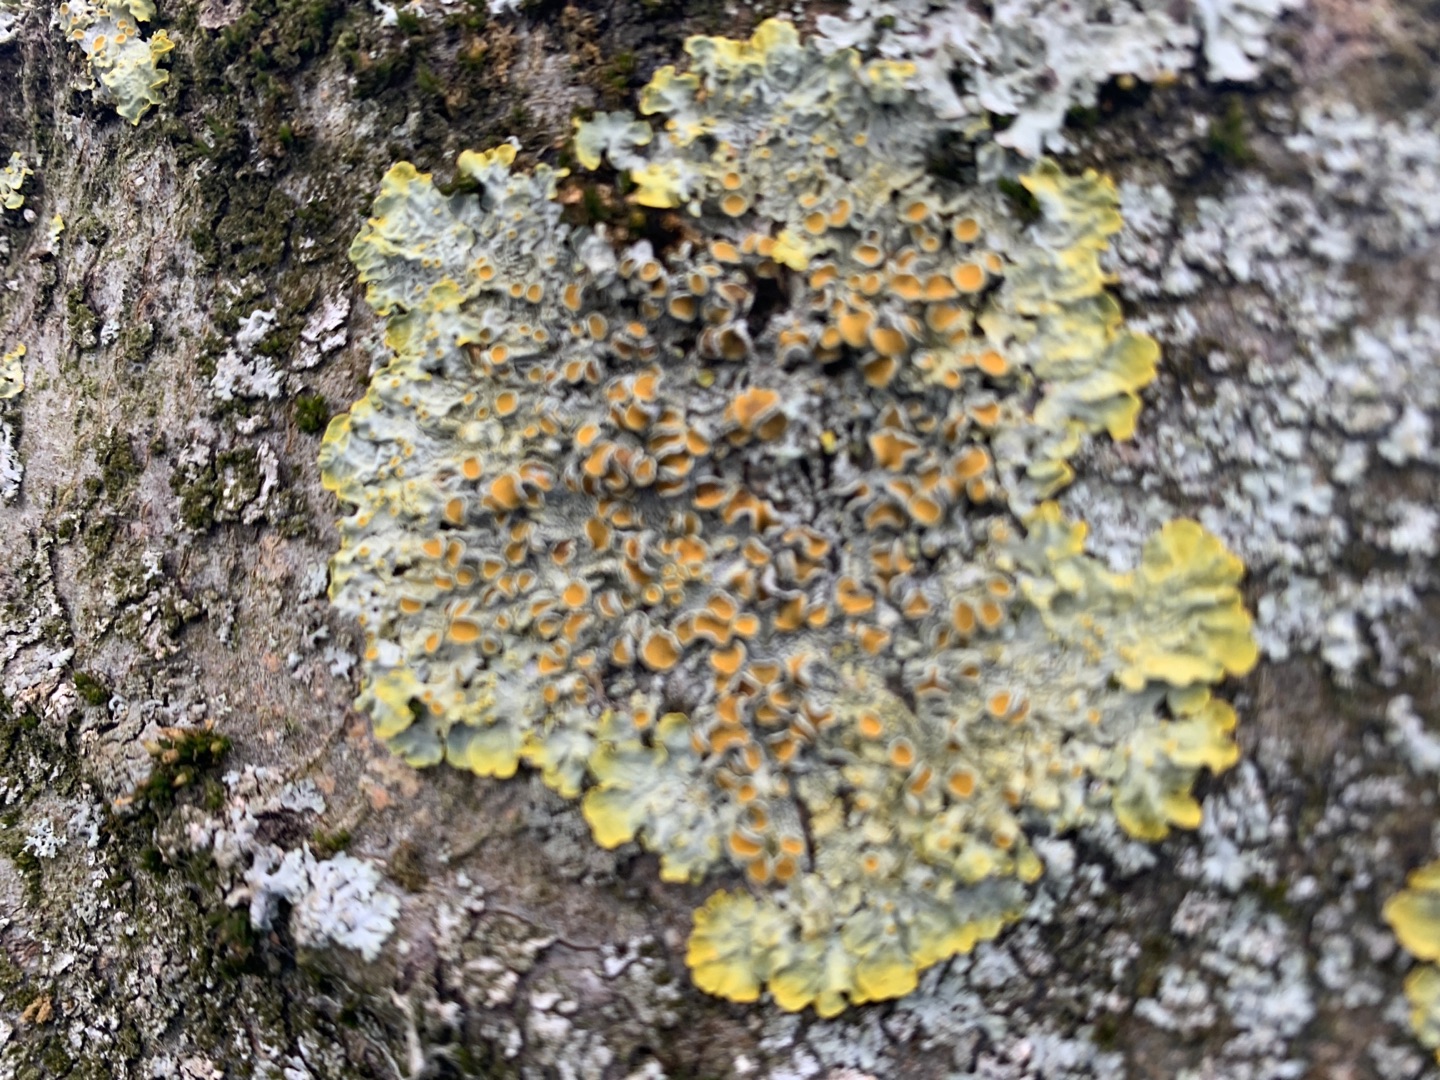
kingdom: Fungi
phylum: Ascomycota
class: Lecanoromycetes
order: Teloschistales
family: Teloschistaceae
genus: Xanthoria
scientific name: Xanthoria parietina
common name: Almindelig væggelav
